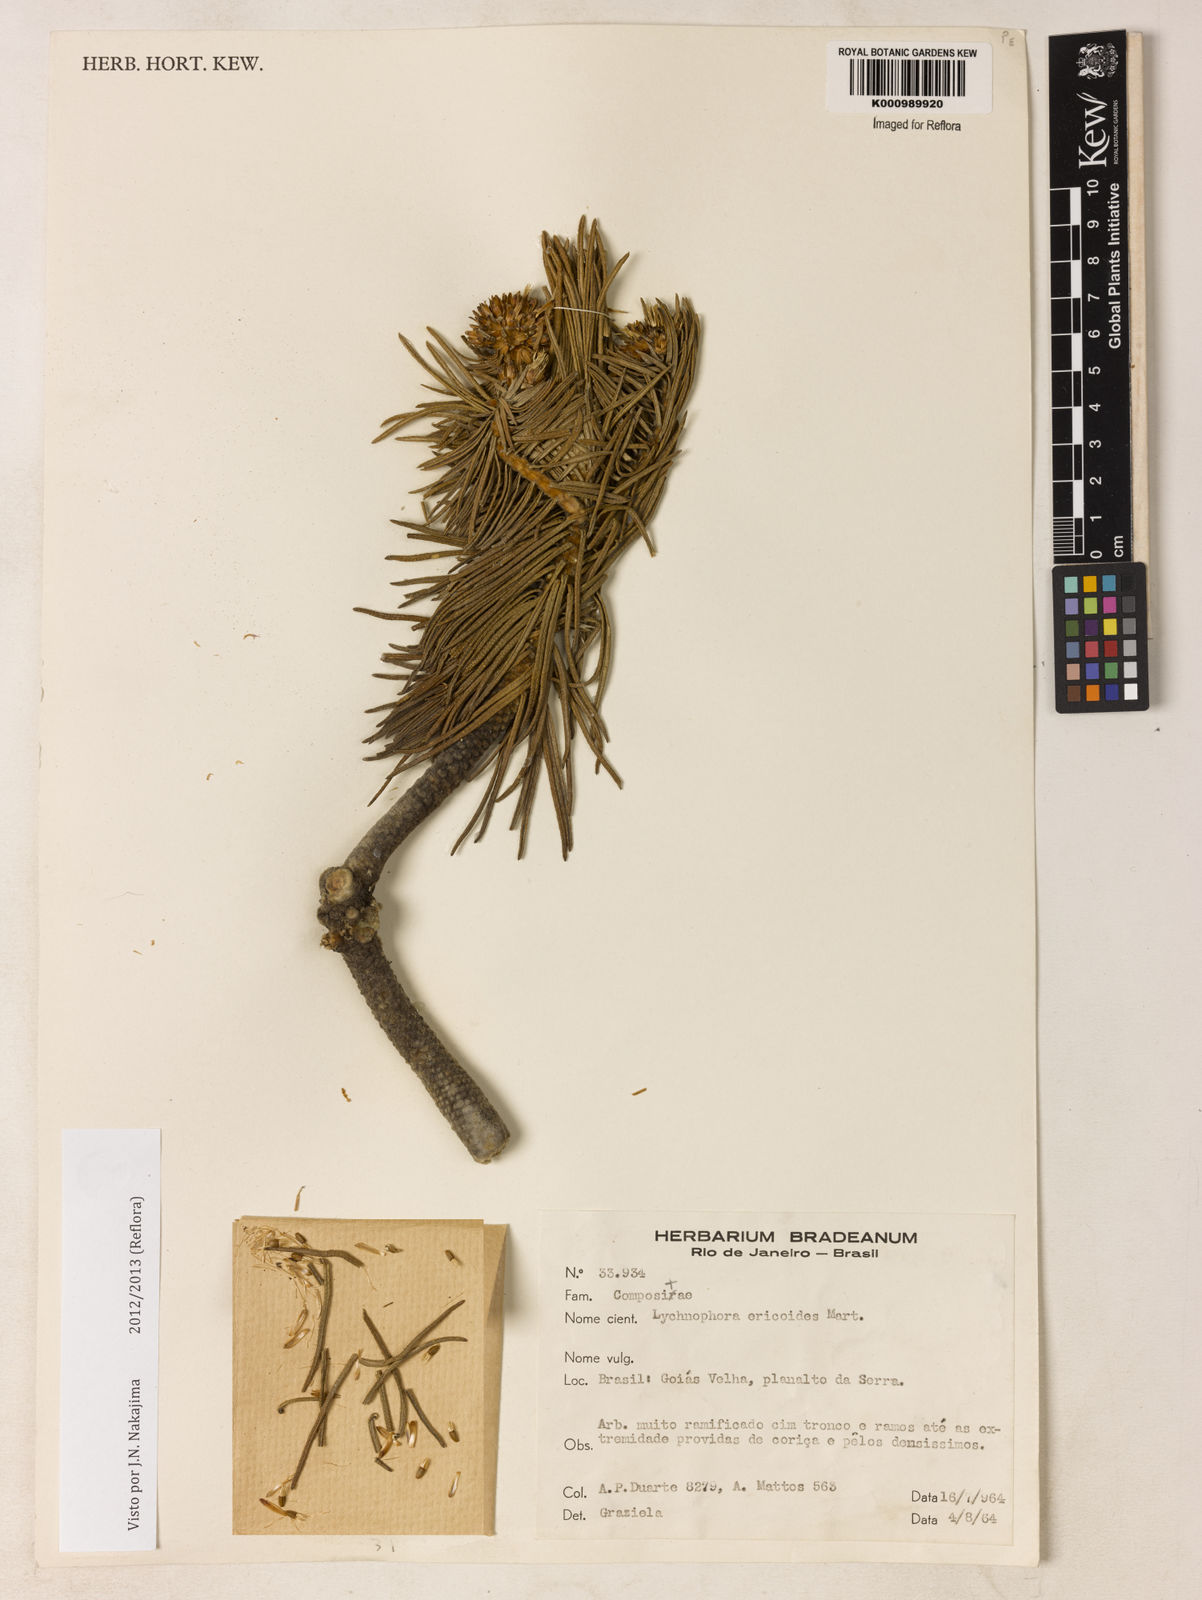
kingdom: Plantae
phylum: Tracheophyta
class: Magnoliopsida
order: Asterales
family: Asteraceae
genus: Lychnophora
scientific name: Lychnophora ericoides
